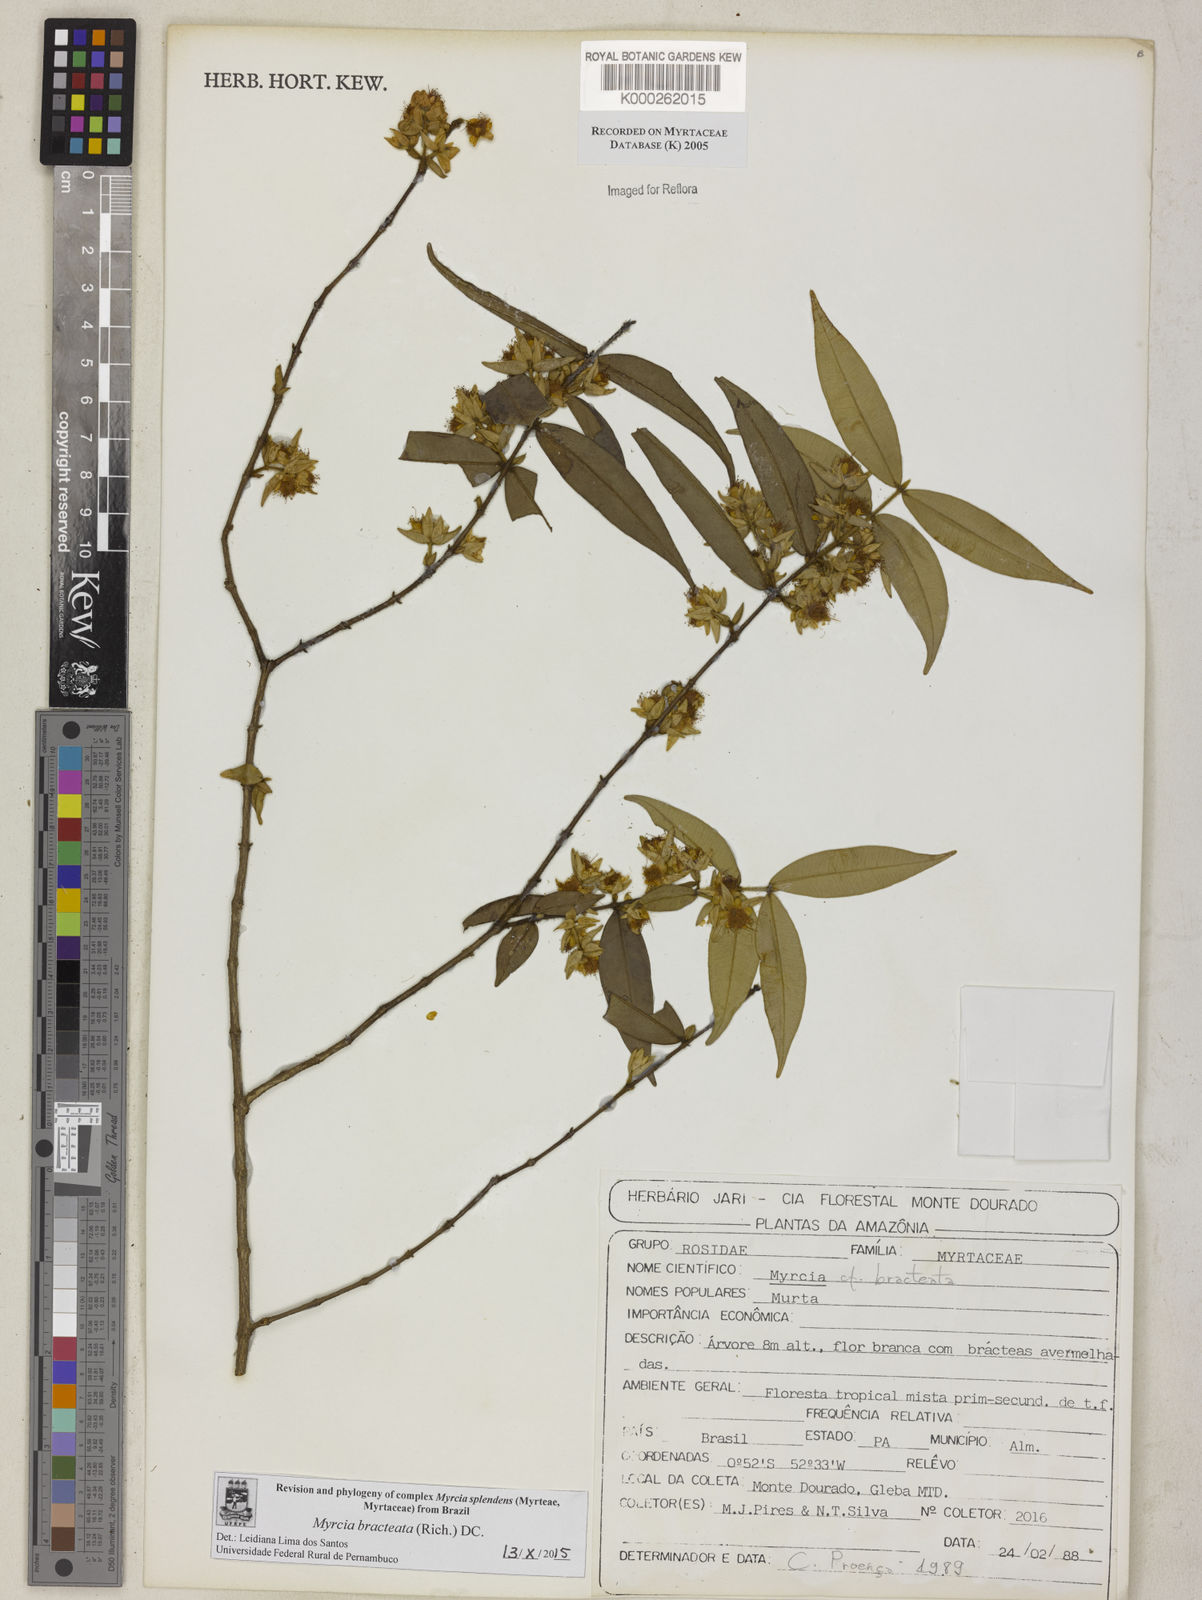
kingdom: Plantae
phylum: Tracheophyta
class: Magnoliopsida
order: Myrtales
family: Myrtaceae
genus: Myrcia
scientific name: Myrcia bracteata
